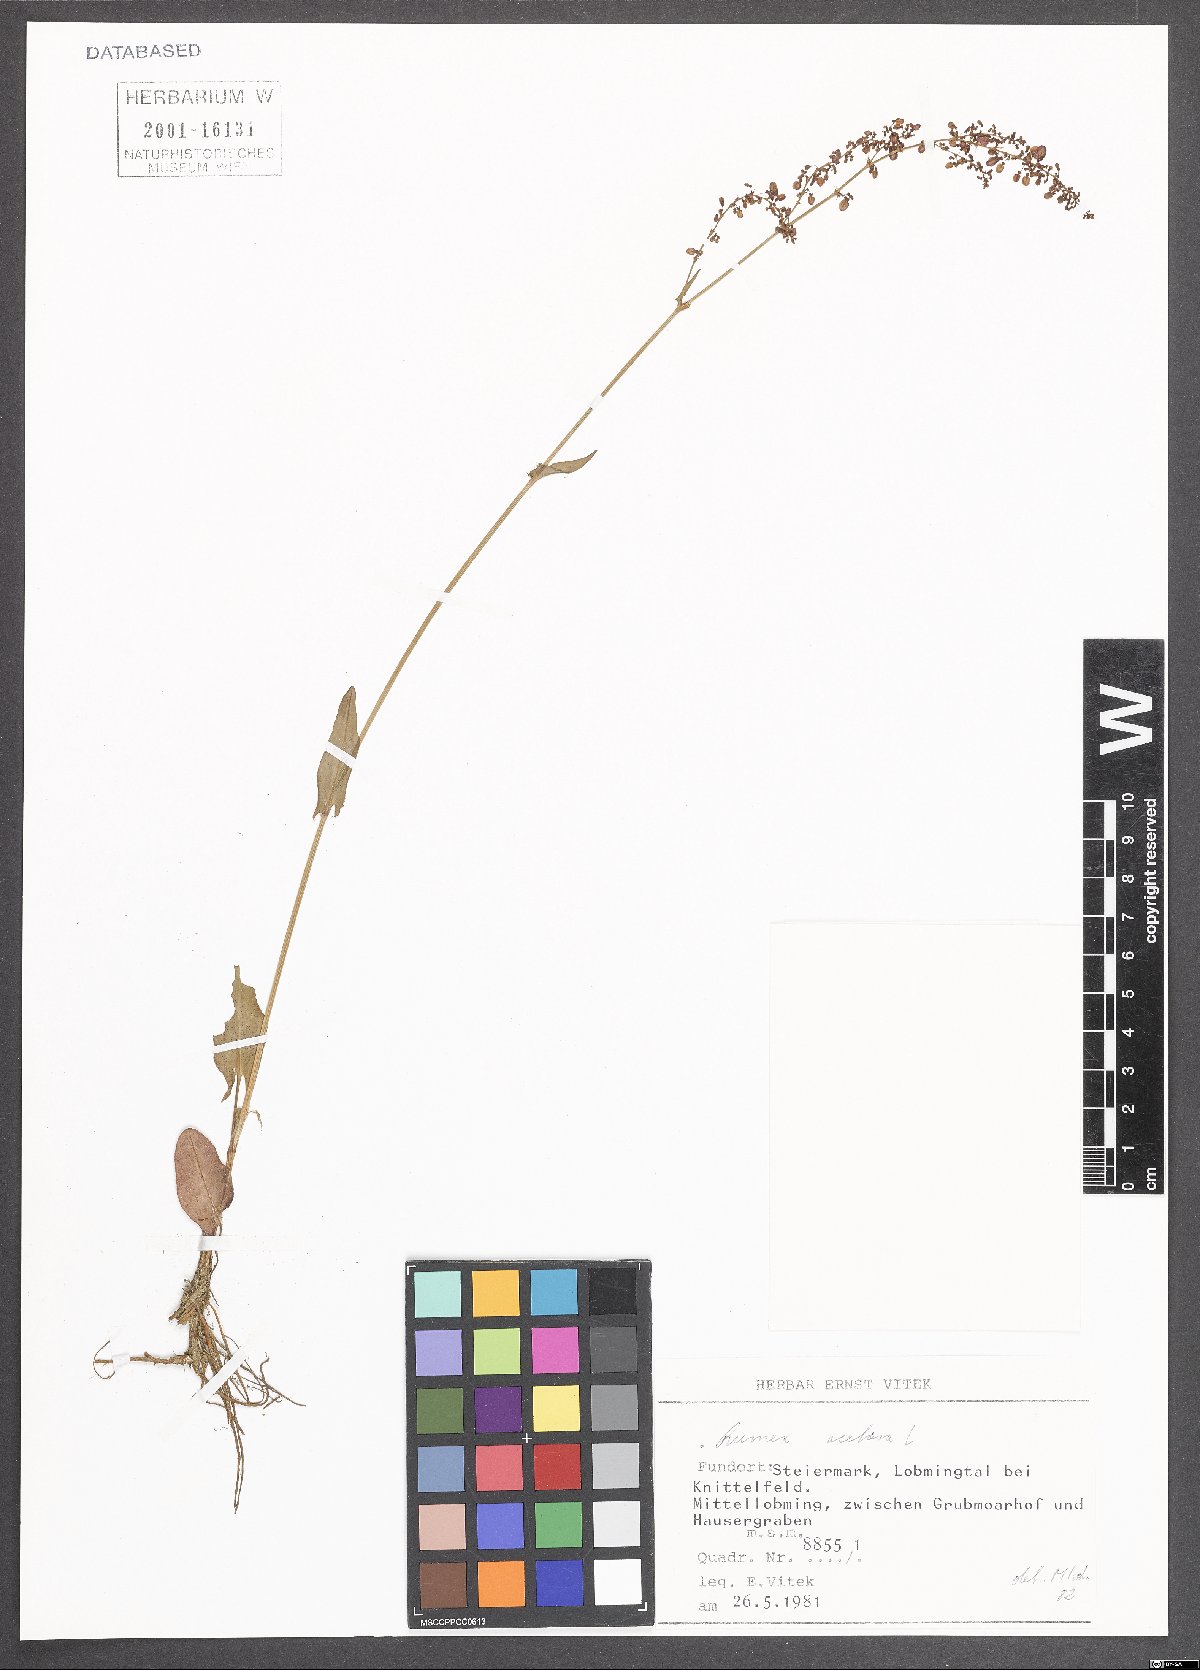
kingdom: Plantae
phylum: Tracheophyta
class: Magnoliopsida
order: Caryophyllales
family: Polygonaceae
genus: Rumex
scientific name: Rumex acetosa
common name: Garden sorrel
